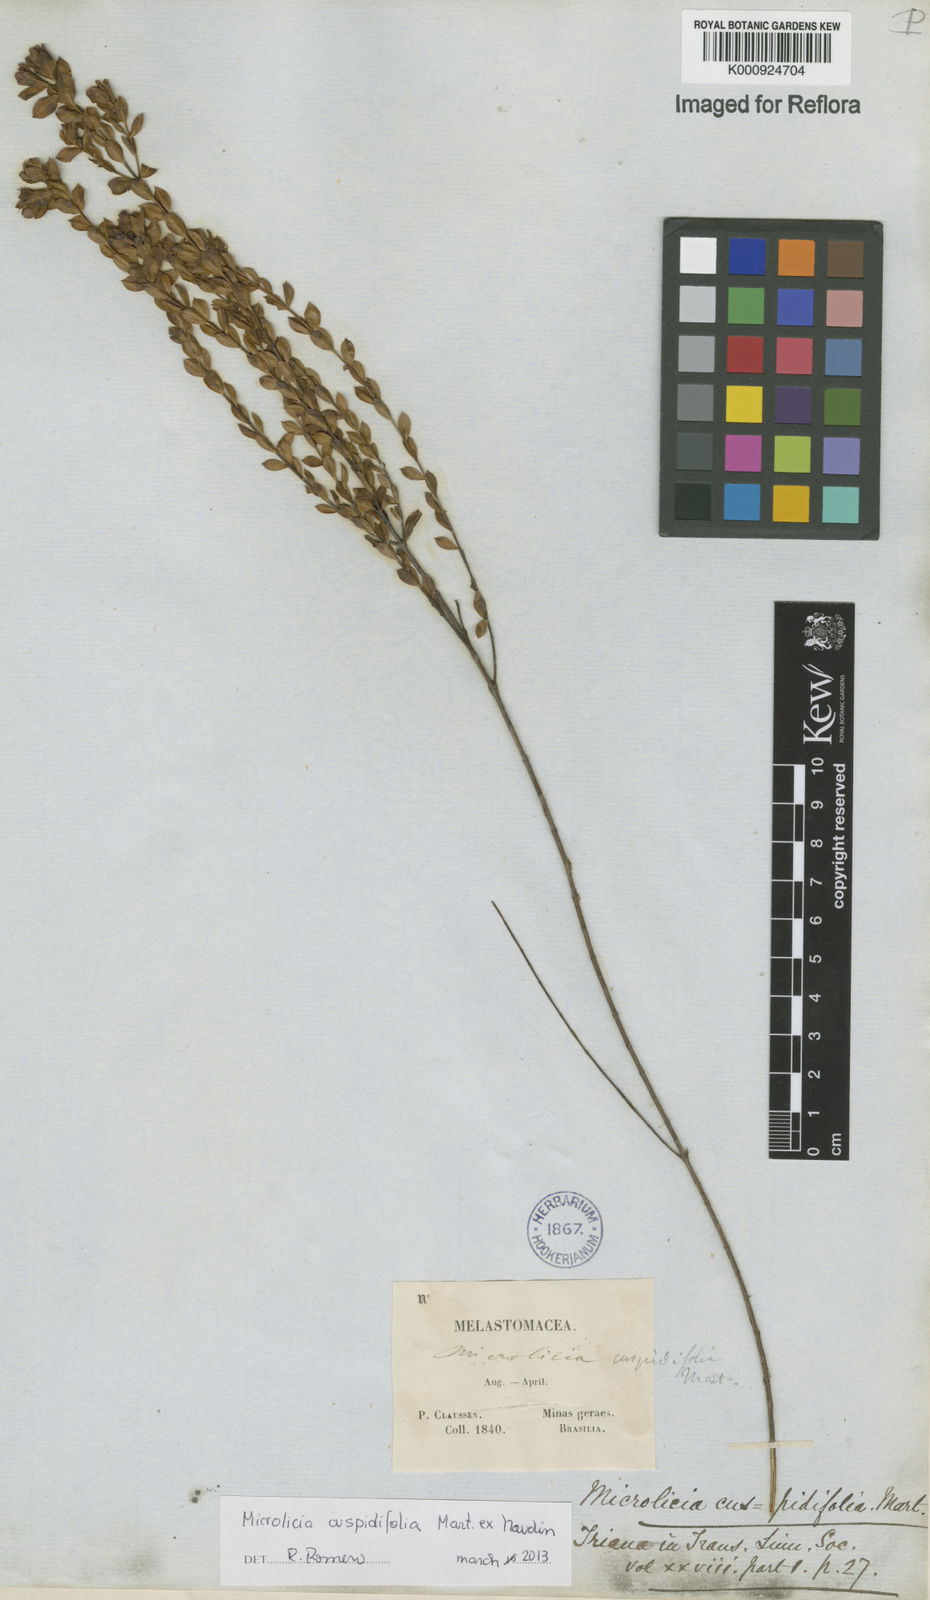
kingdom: Plantae
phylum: Tracheophyta
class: Magnoliopsida
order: Myrtales
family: Melastomataceae
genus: Microlicia
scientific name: Microlicia
